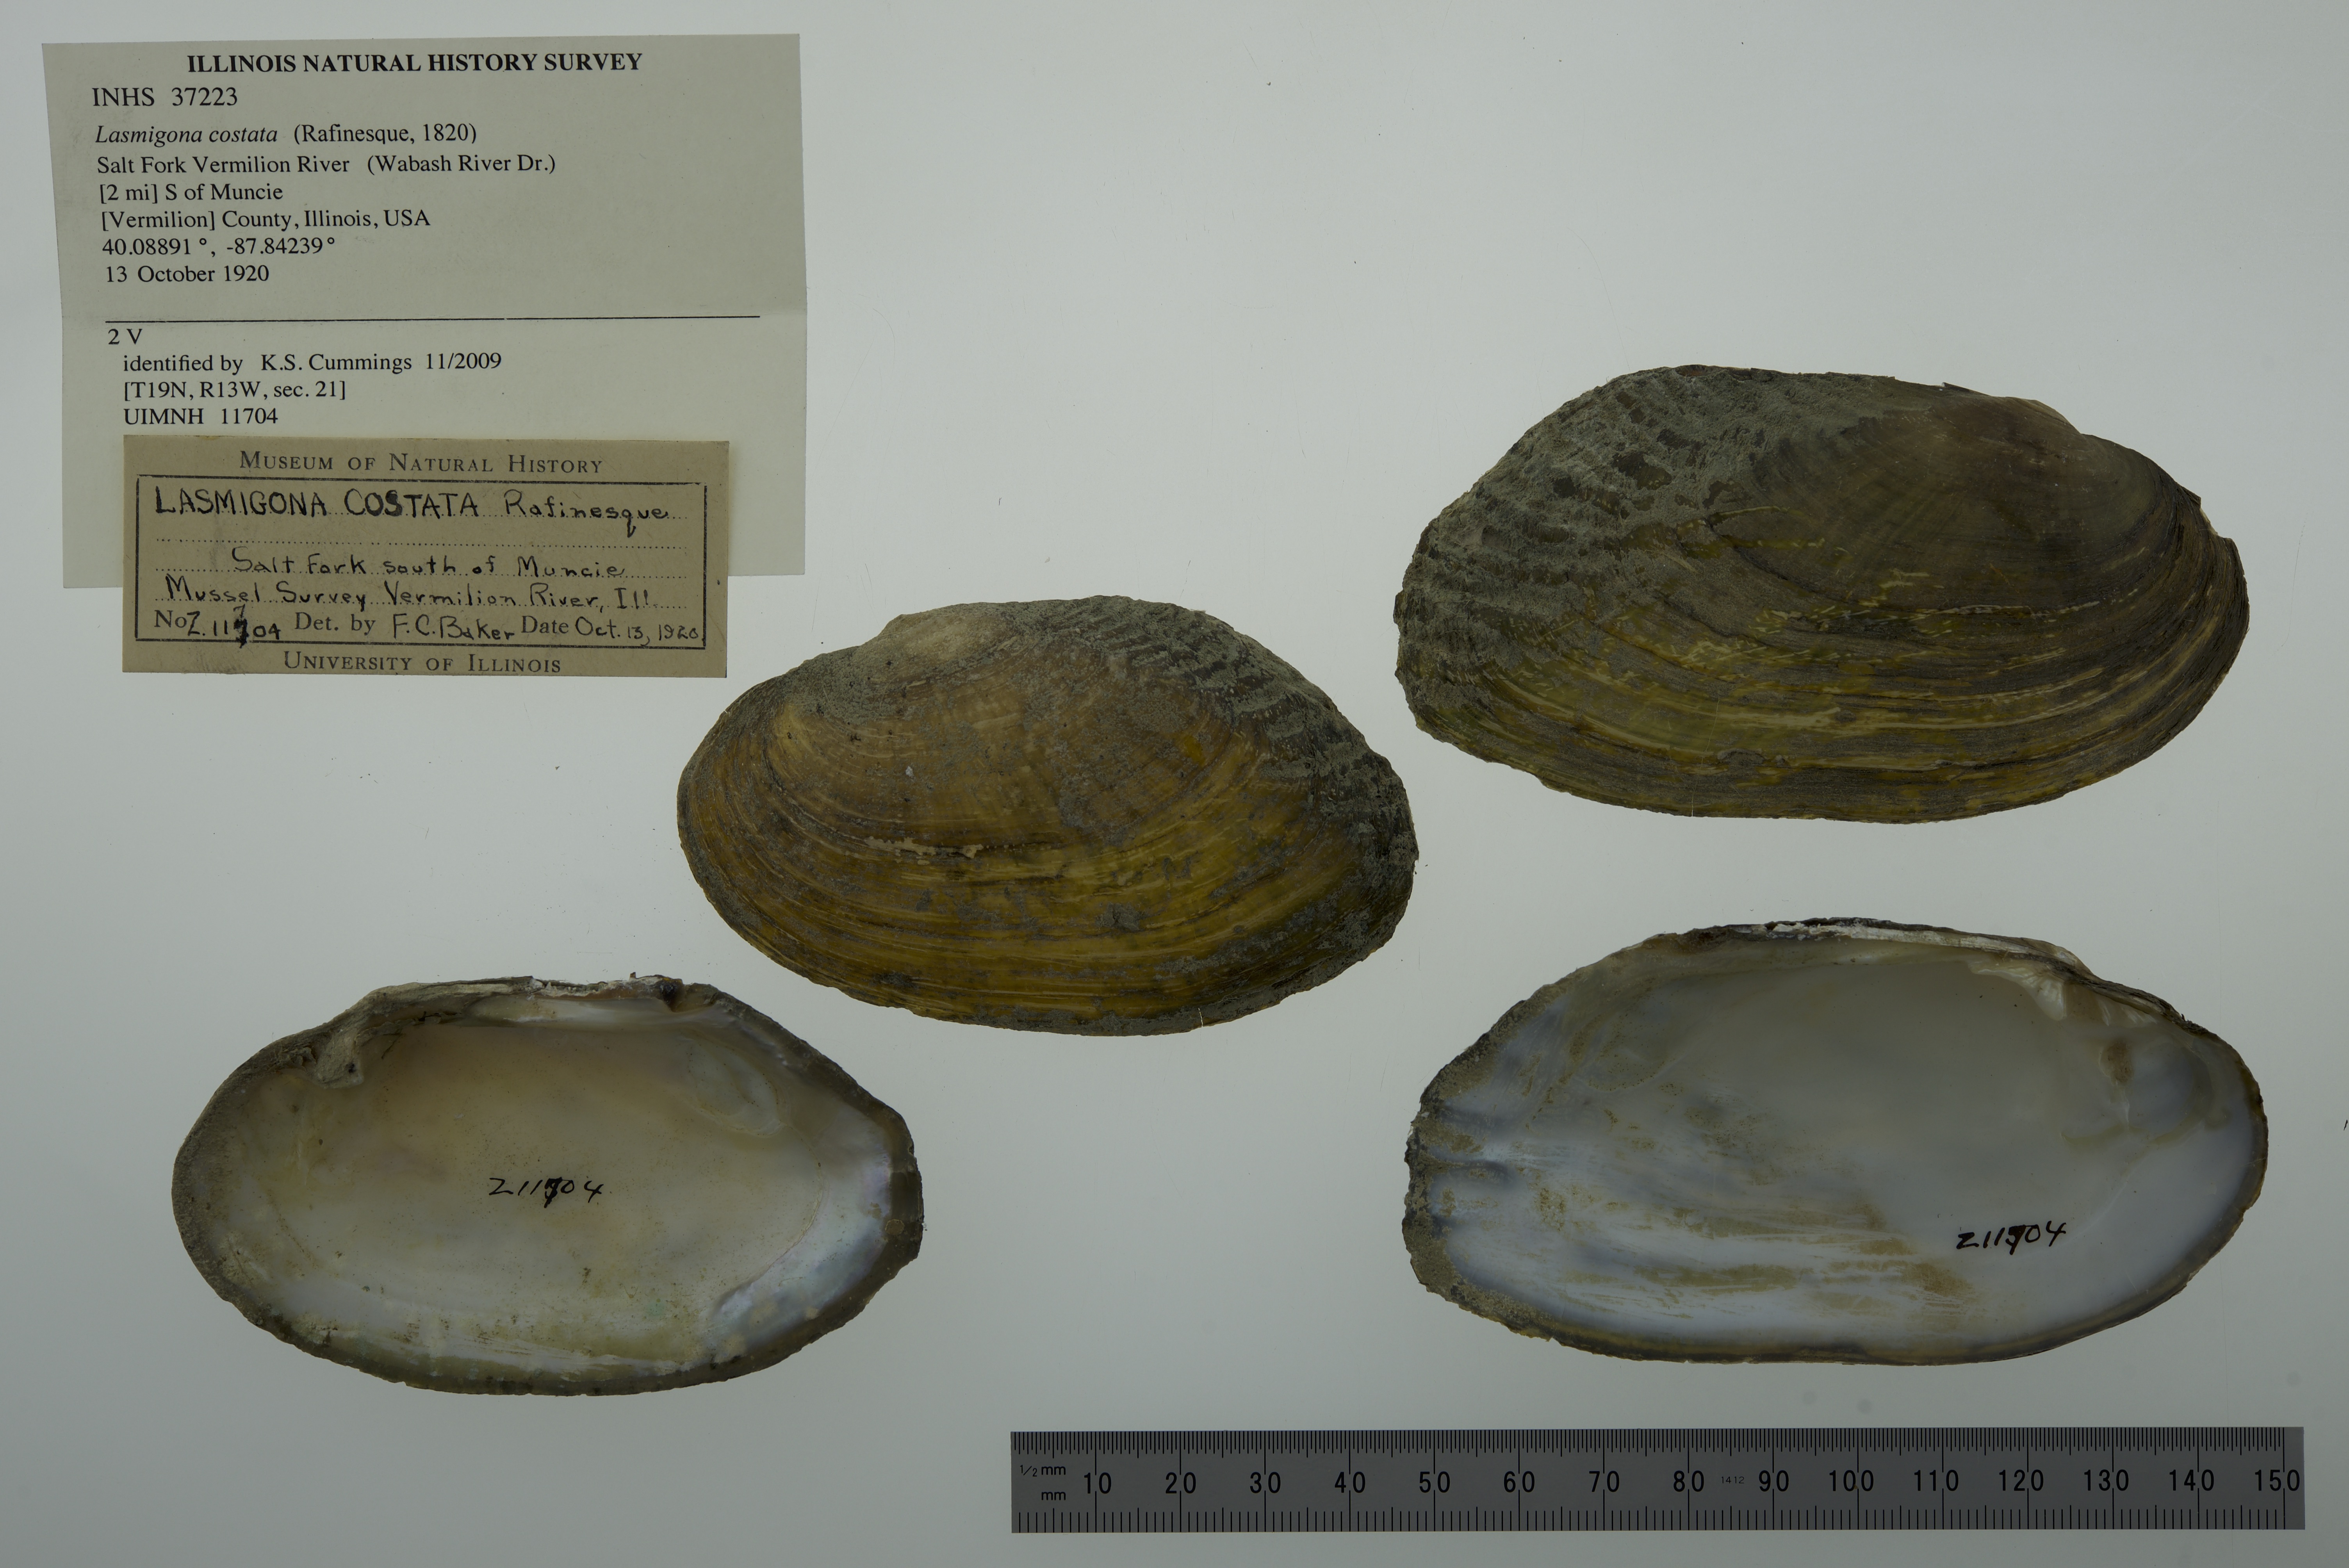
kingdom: Animalia
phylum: Mollusca
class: Bivalvia
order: Unionida
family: Unionidae
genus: Lasmigona
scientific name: Lasmigona costata
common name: Flutedshell
